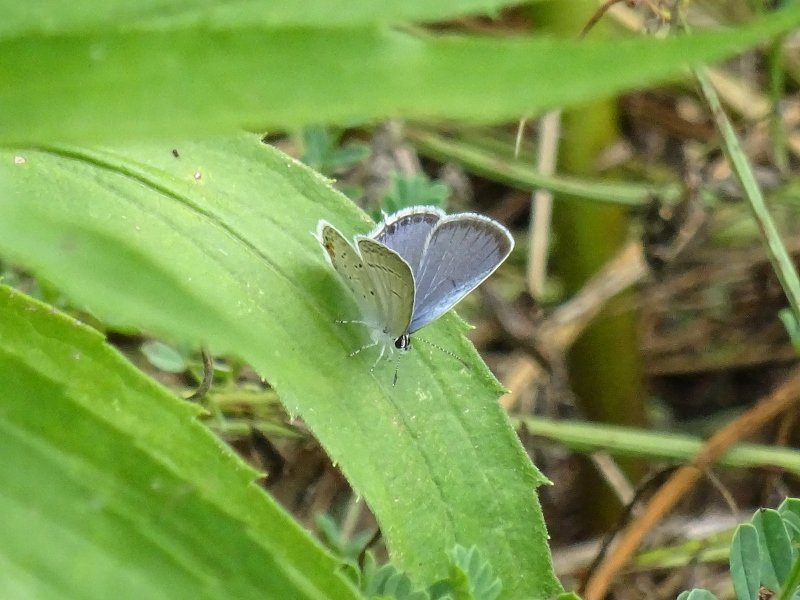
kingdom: Animalia
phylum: Arthropoda
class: Insecta
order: Lepidoptera
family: Lycaenidae
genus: Elkalyce
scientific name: Elkalyce comyntas
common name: Eastern Tailed-Blue
